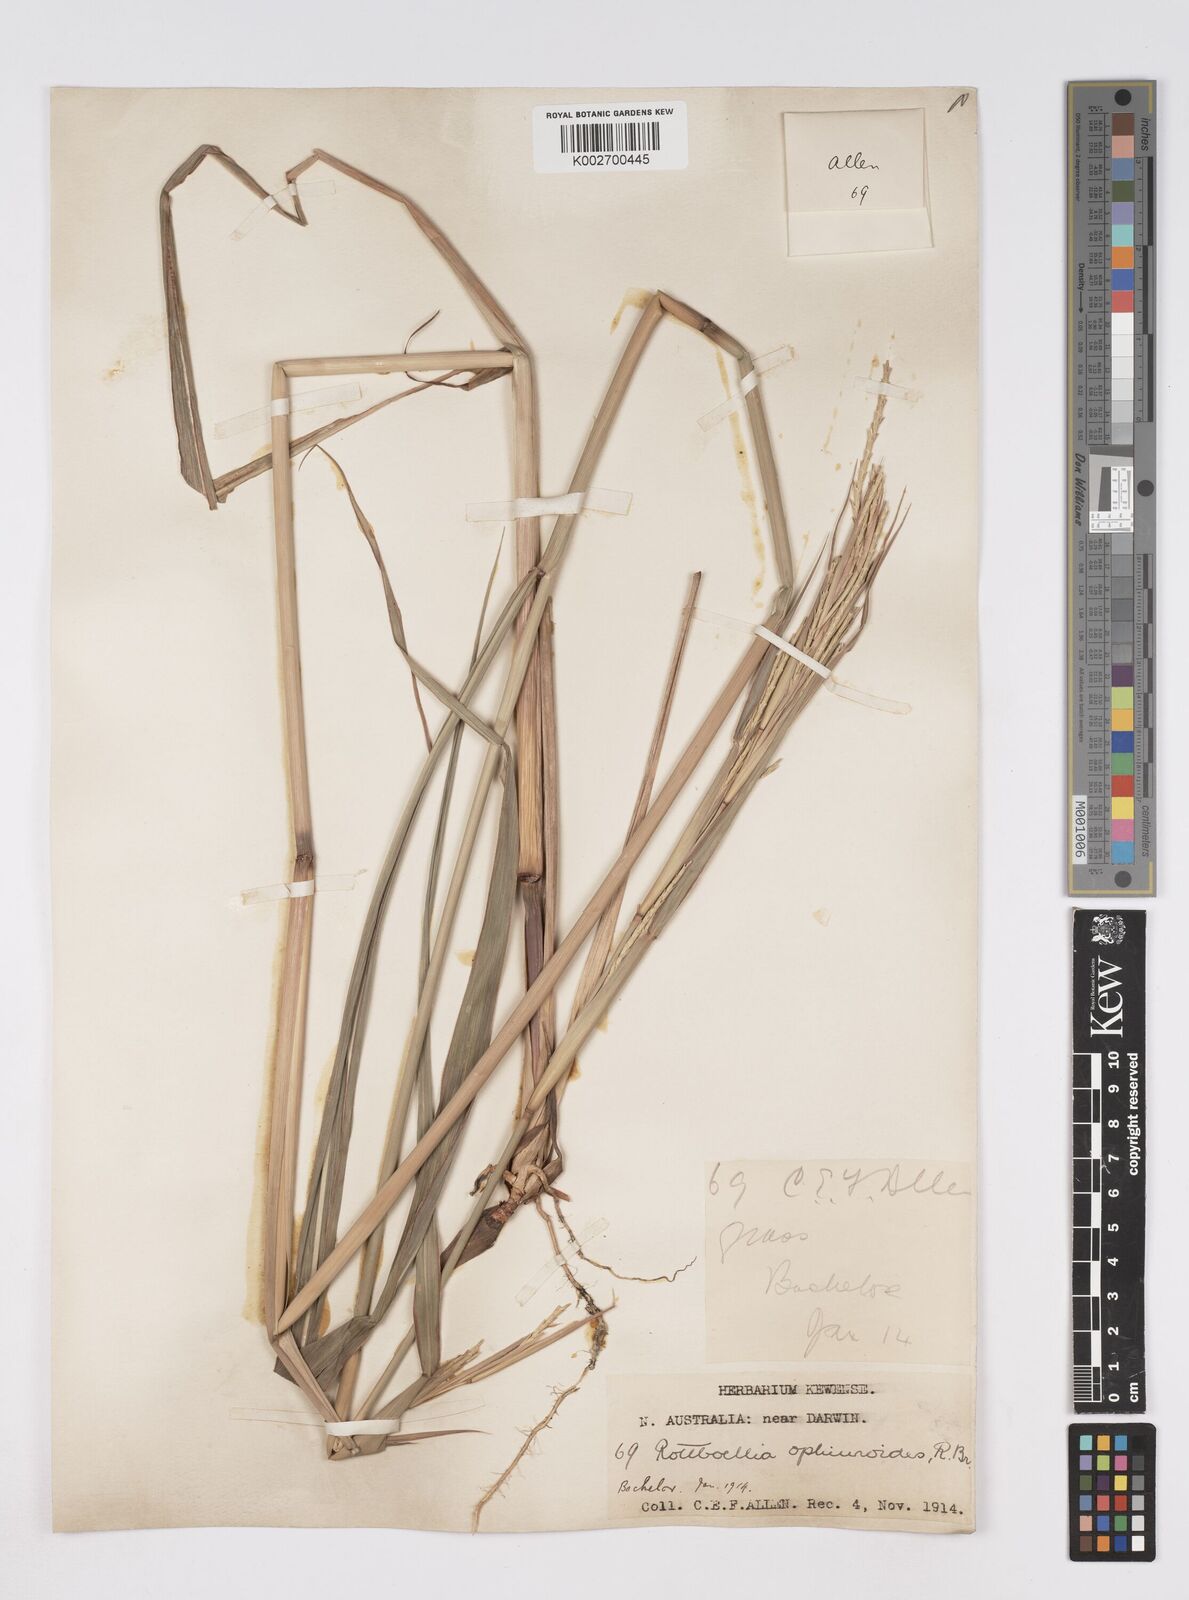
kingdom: Plantae
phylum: Tracheophyta
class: Liliopsida
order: Poales
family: Poaceae
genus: Rottboellia
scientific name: Rottboellia rottboellioides
